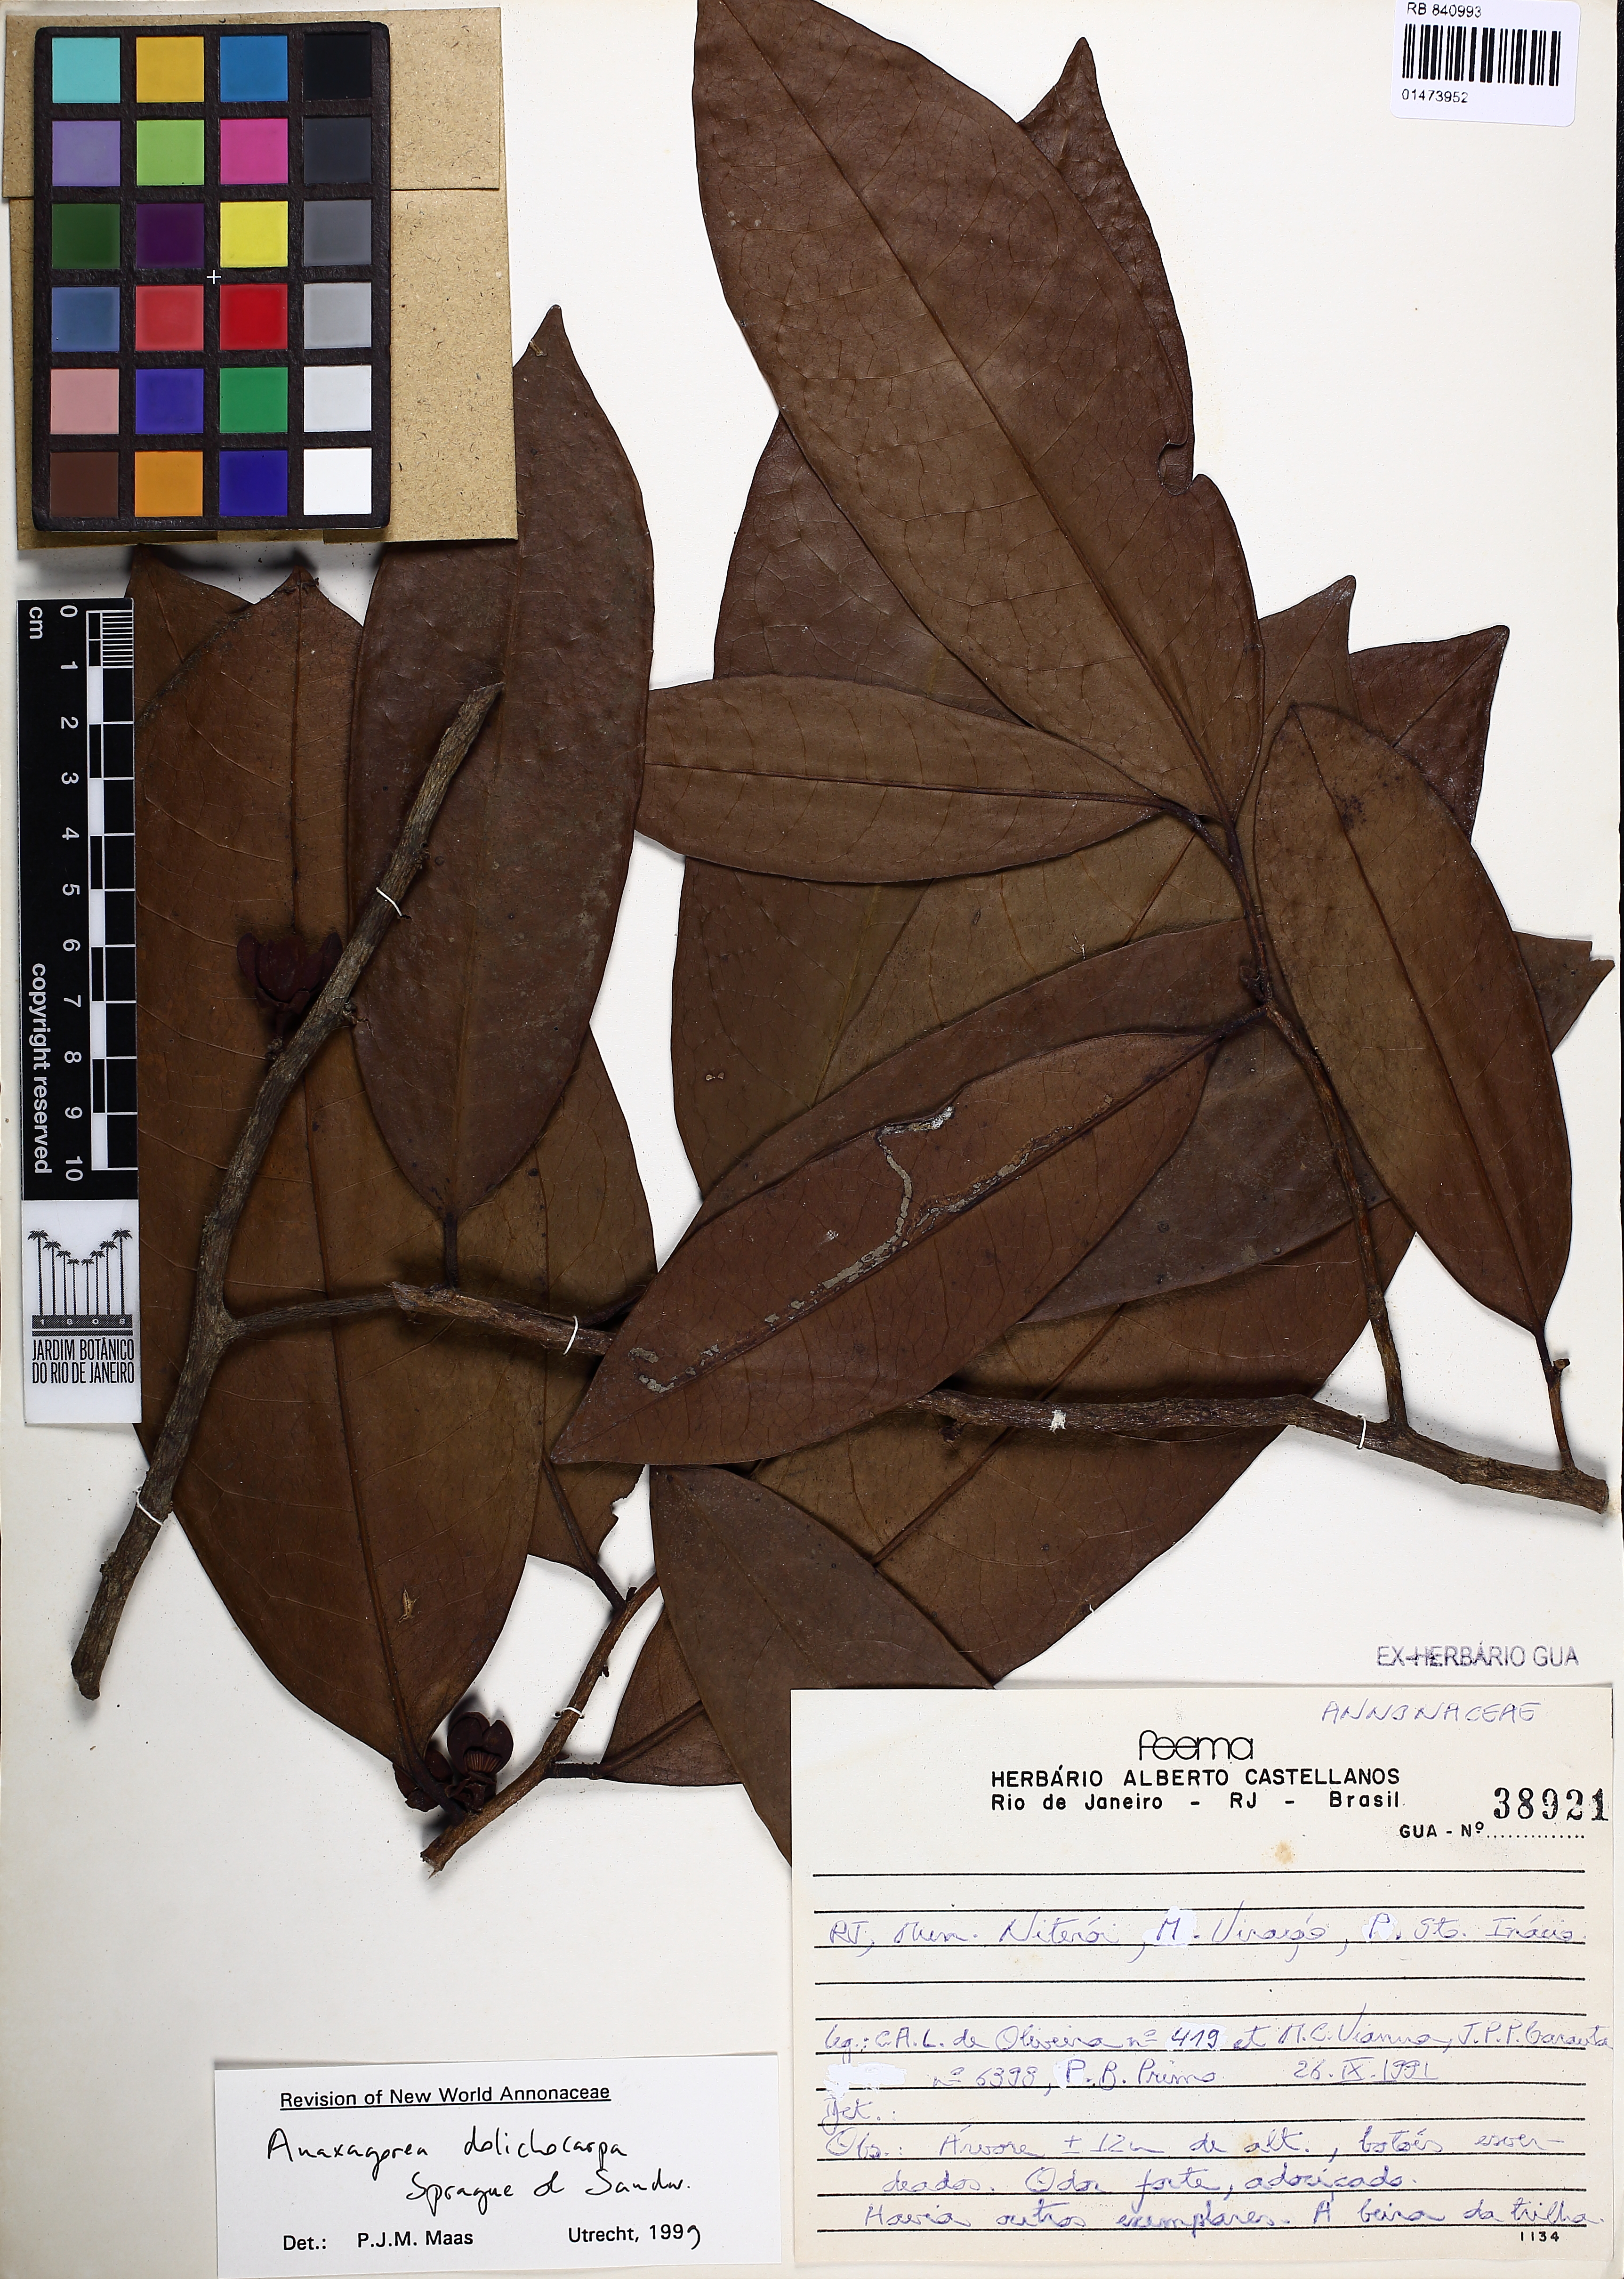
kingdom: Plantae
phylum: Tracheophyta
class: Magnoliopsida
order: Magnoliales
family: Annonaceae
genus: Anaxagorea
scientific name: Anaxagorea dolichocarpa
